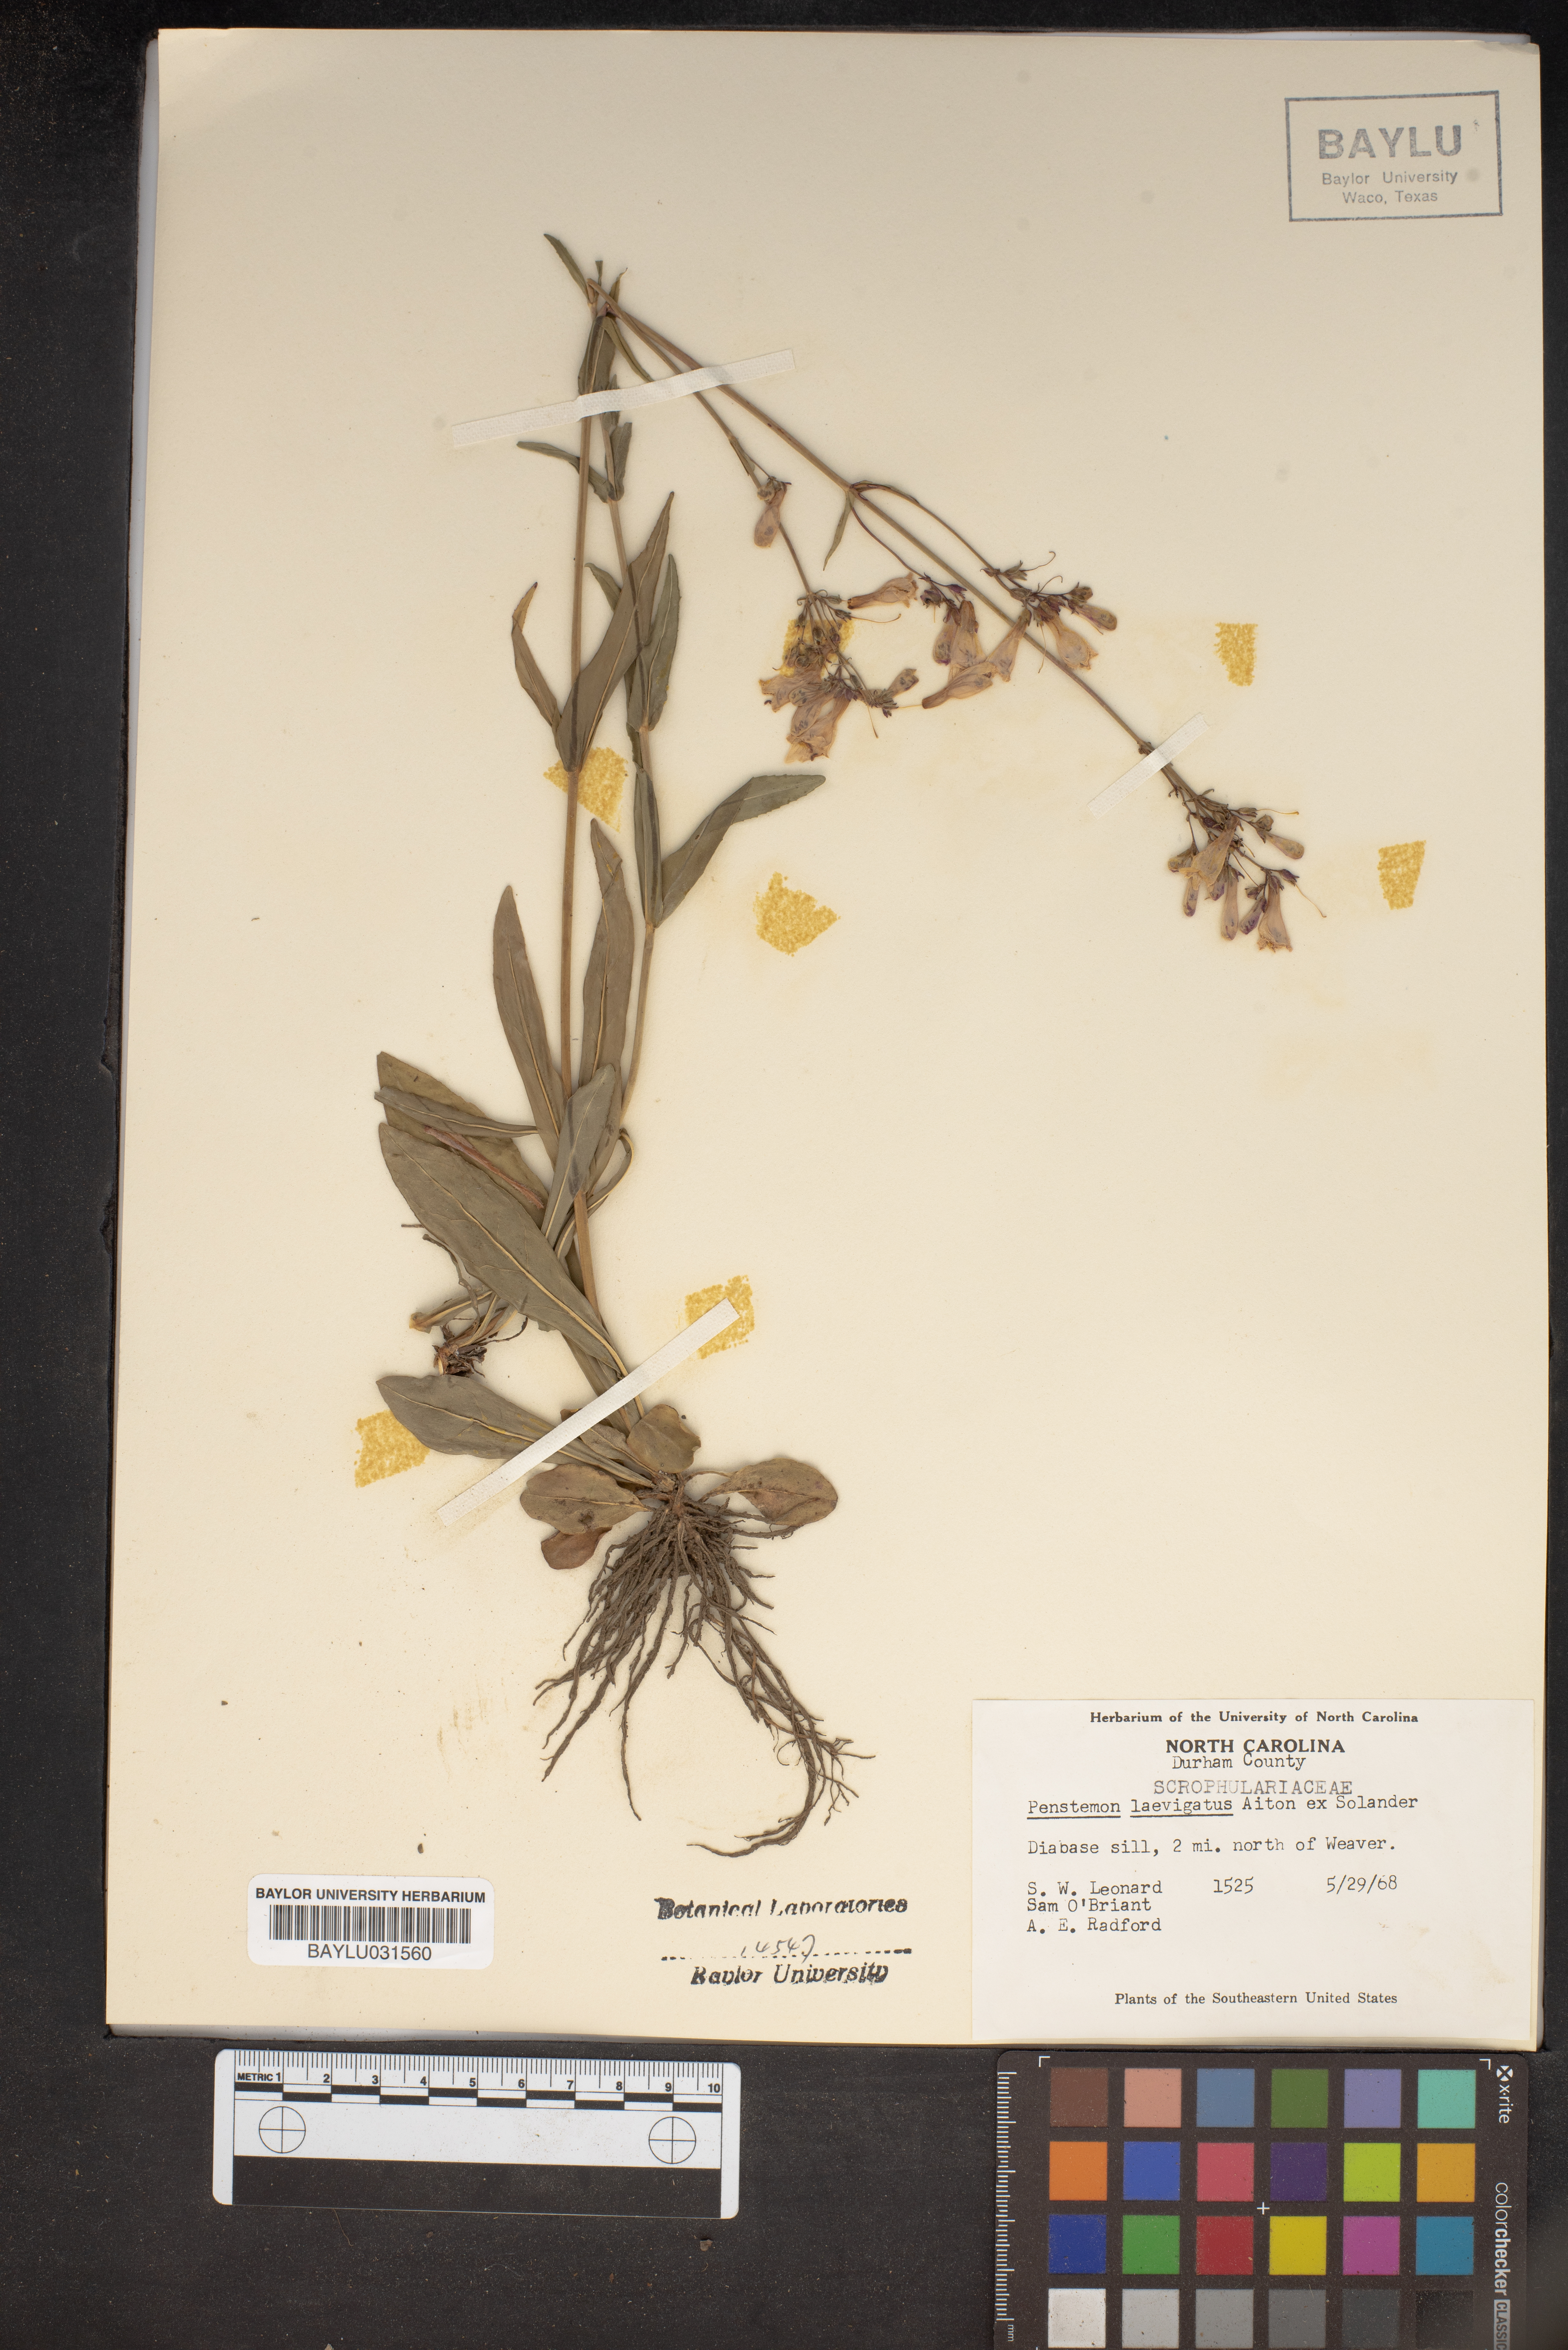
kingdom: Plantae
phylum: Tracheophyta
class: Magnoliopsida
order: Lamiales
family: Plantaginaceae
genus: Penstemon
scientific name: Penstemon laevigatus
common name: Eastern beardtongue
